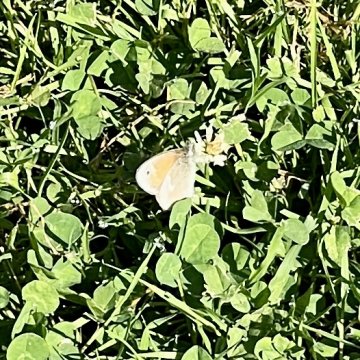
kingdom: Animalia
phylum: Arthropoda
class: Insecta
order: Lepidoptera
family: Nymphalidae
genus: Coenonympha
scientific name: Coenonympha tullia
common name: Large Heath
